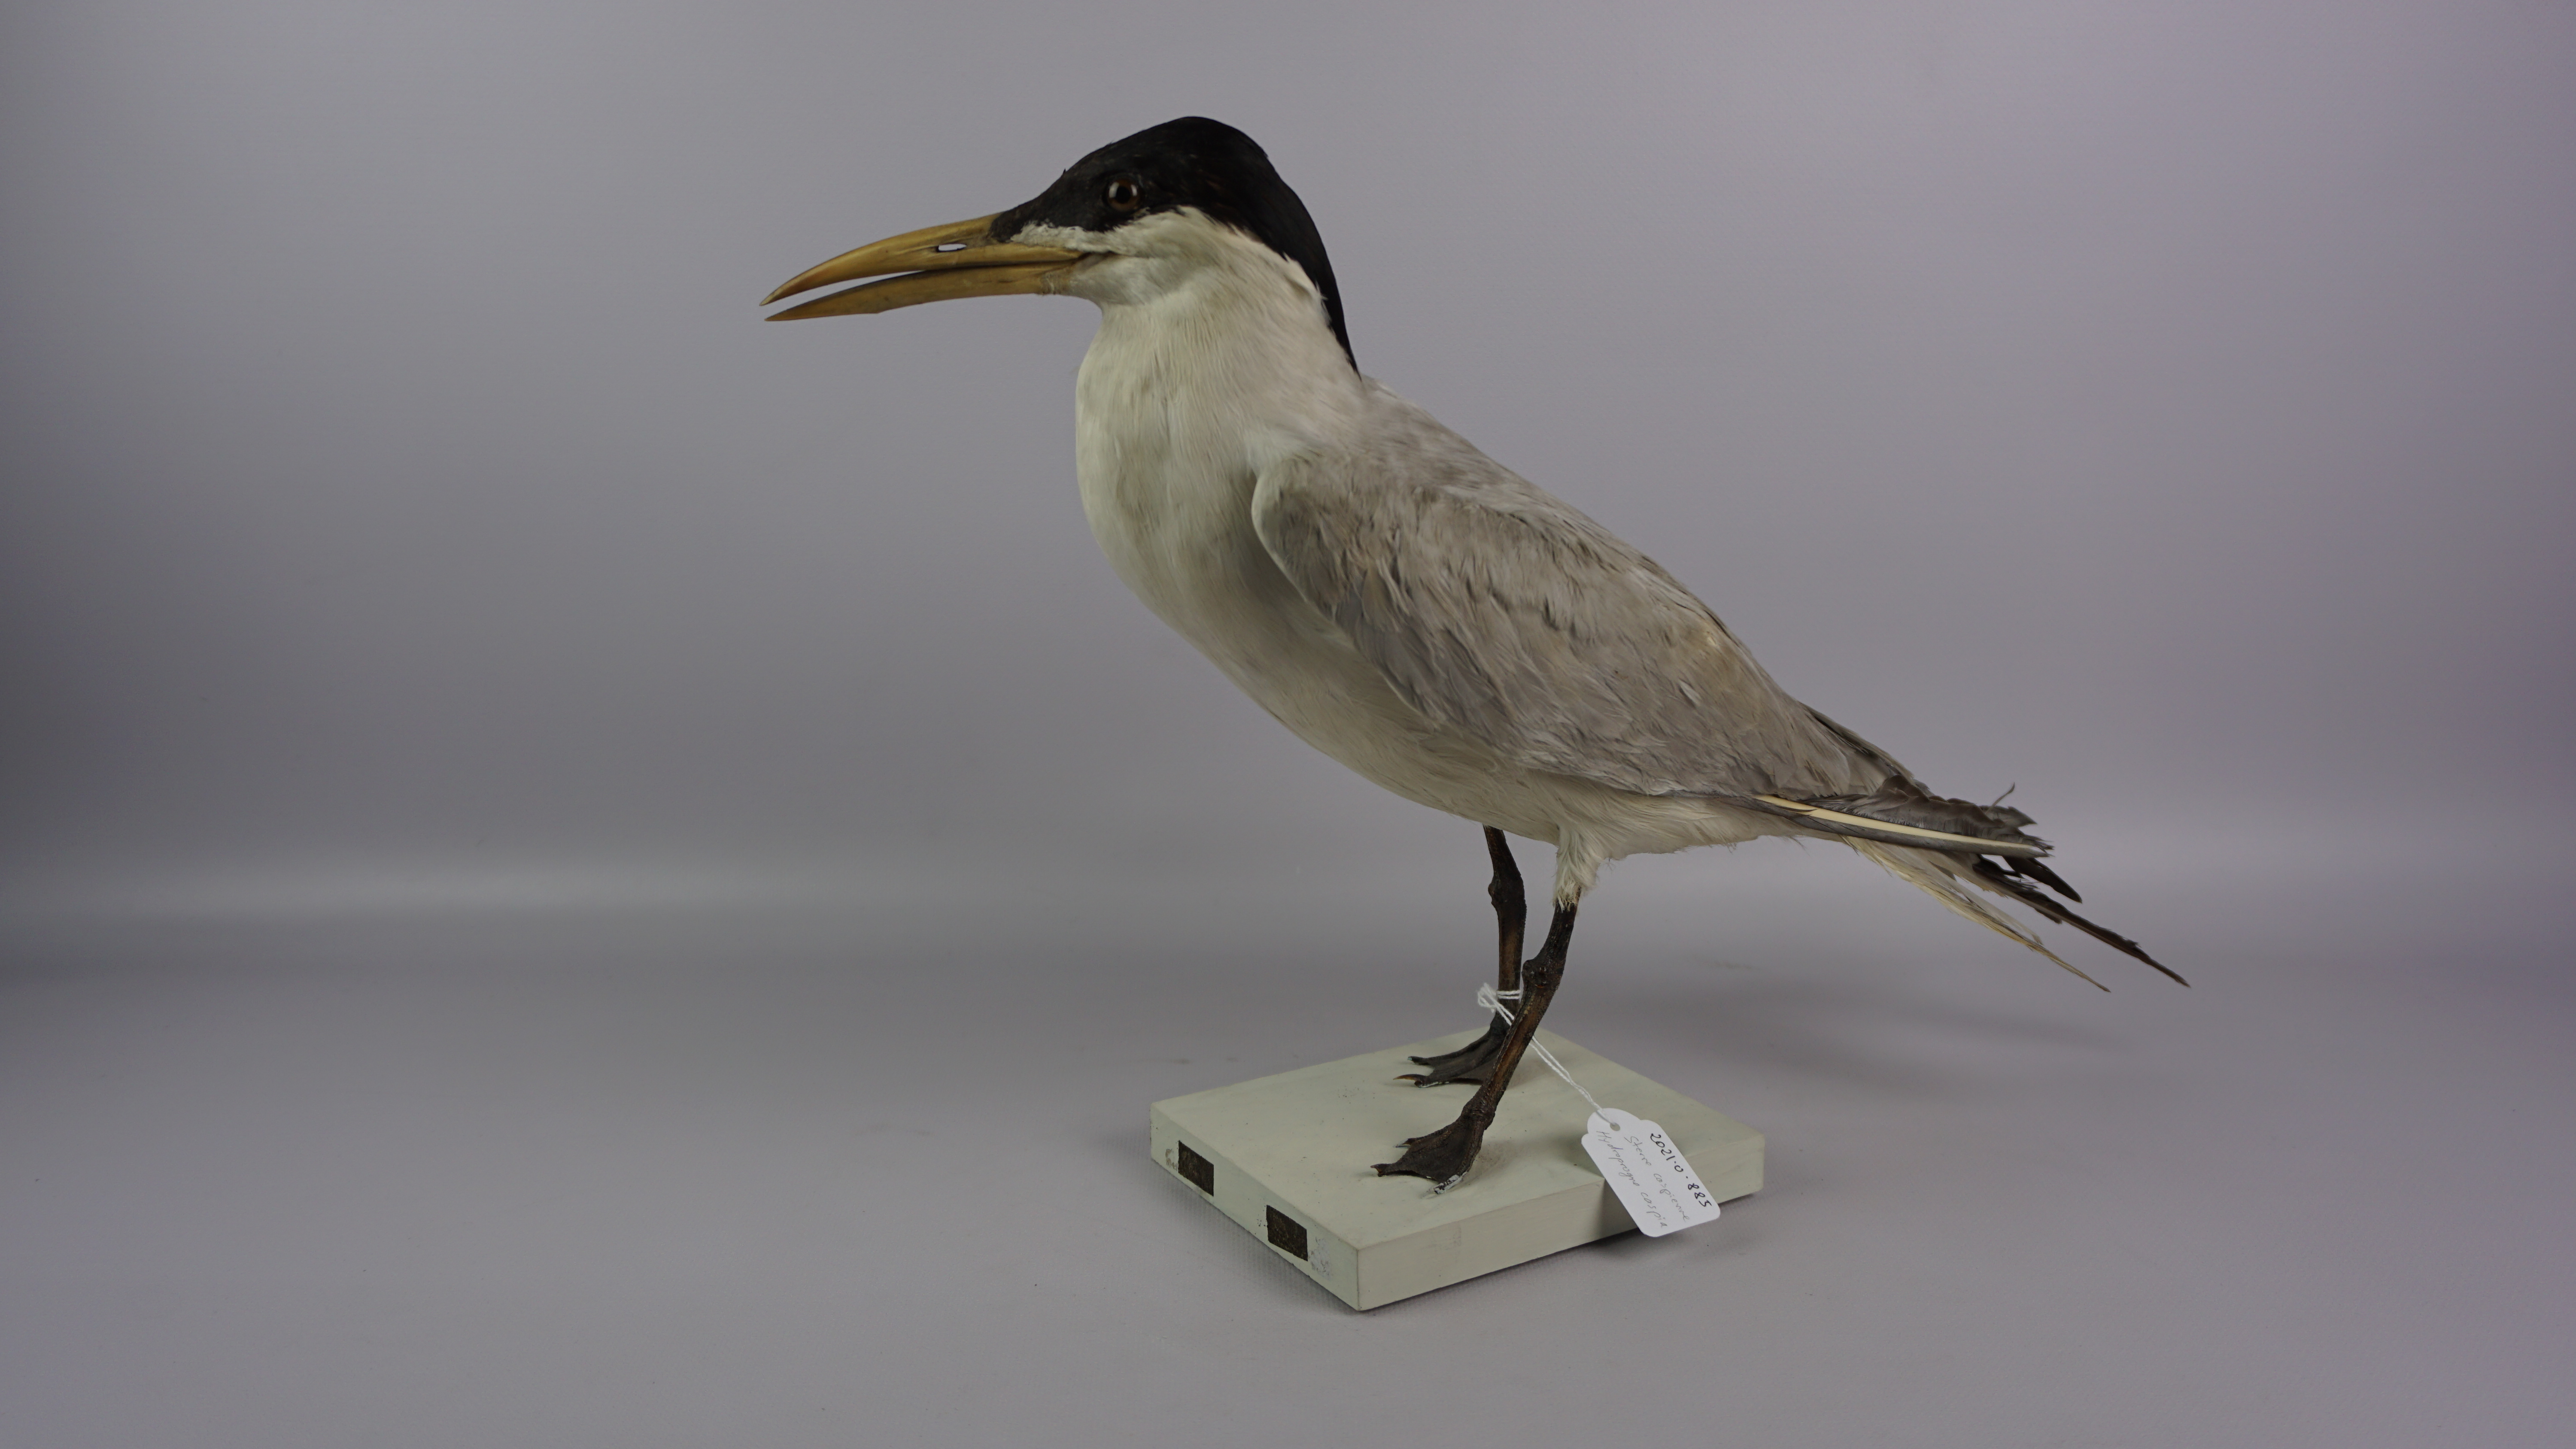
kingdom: Animalia
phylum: Chordata
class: Aves
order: Charadriiformes
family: Laridae
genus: Hydroprogne
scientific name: Hydroprogne caspia
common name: Caspian tern
